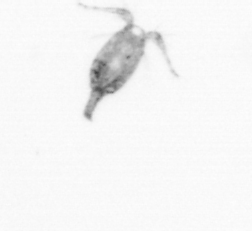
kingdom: Animalia
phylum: Arthropoda
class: Copepoda
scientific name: Copepoda
